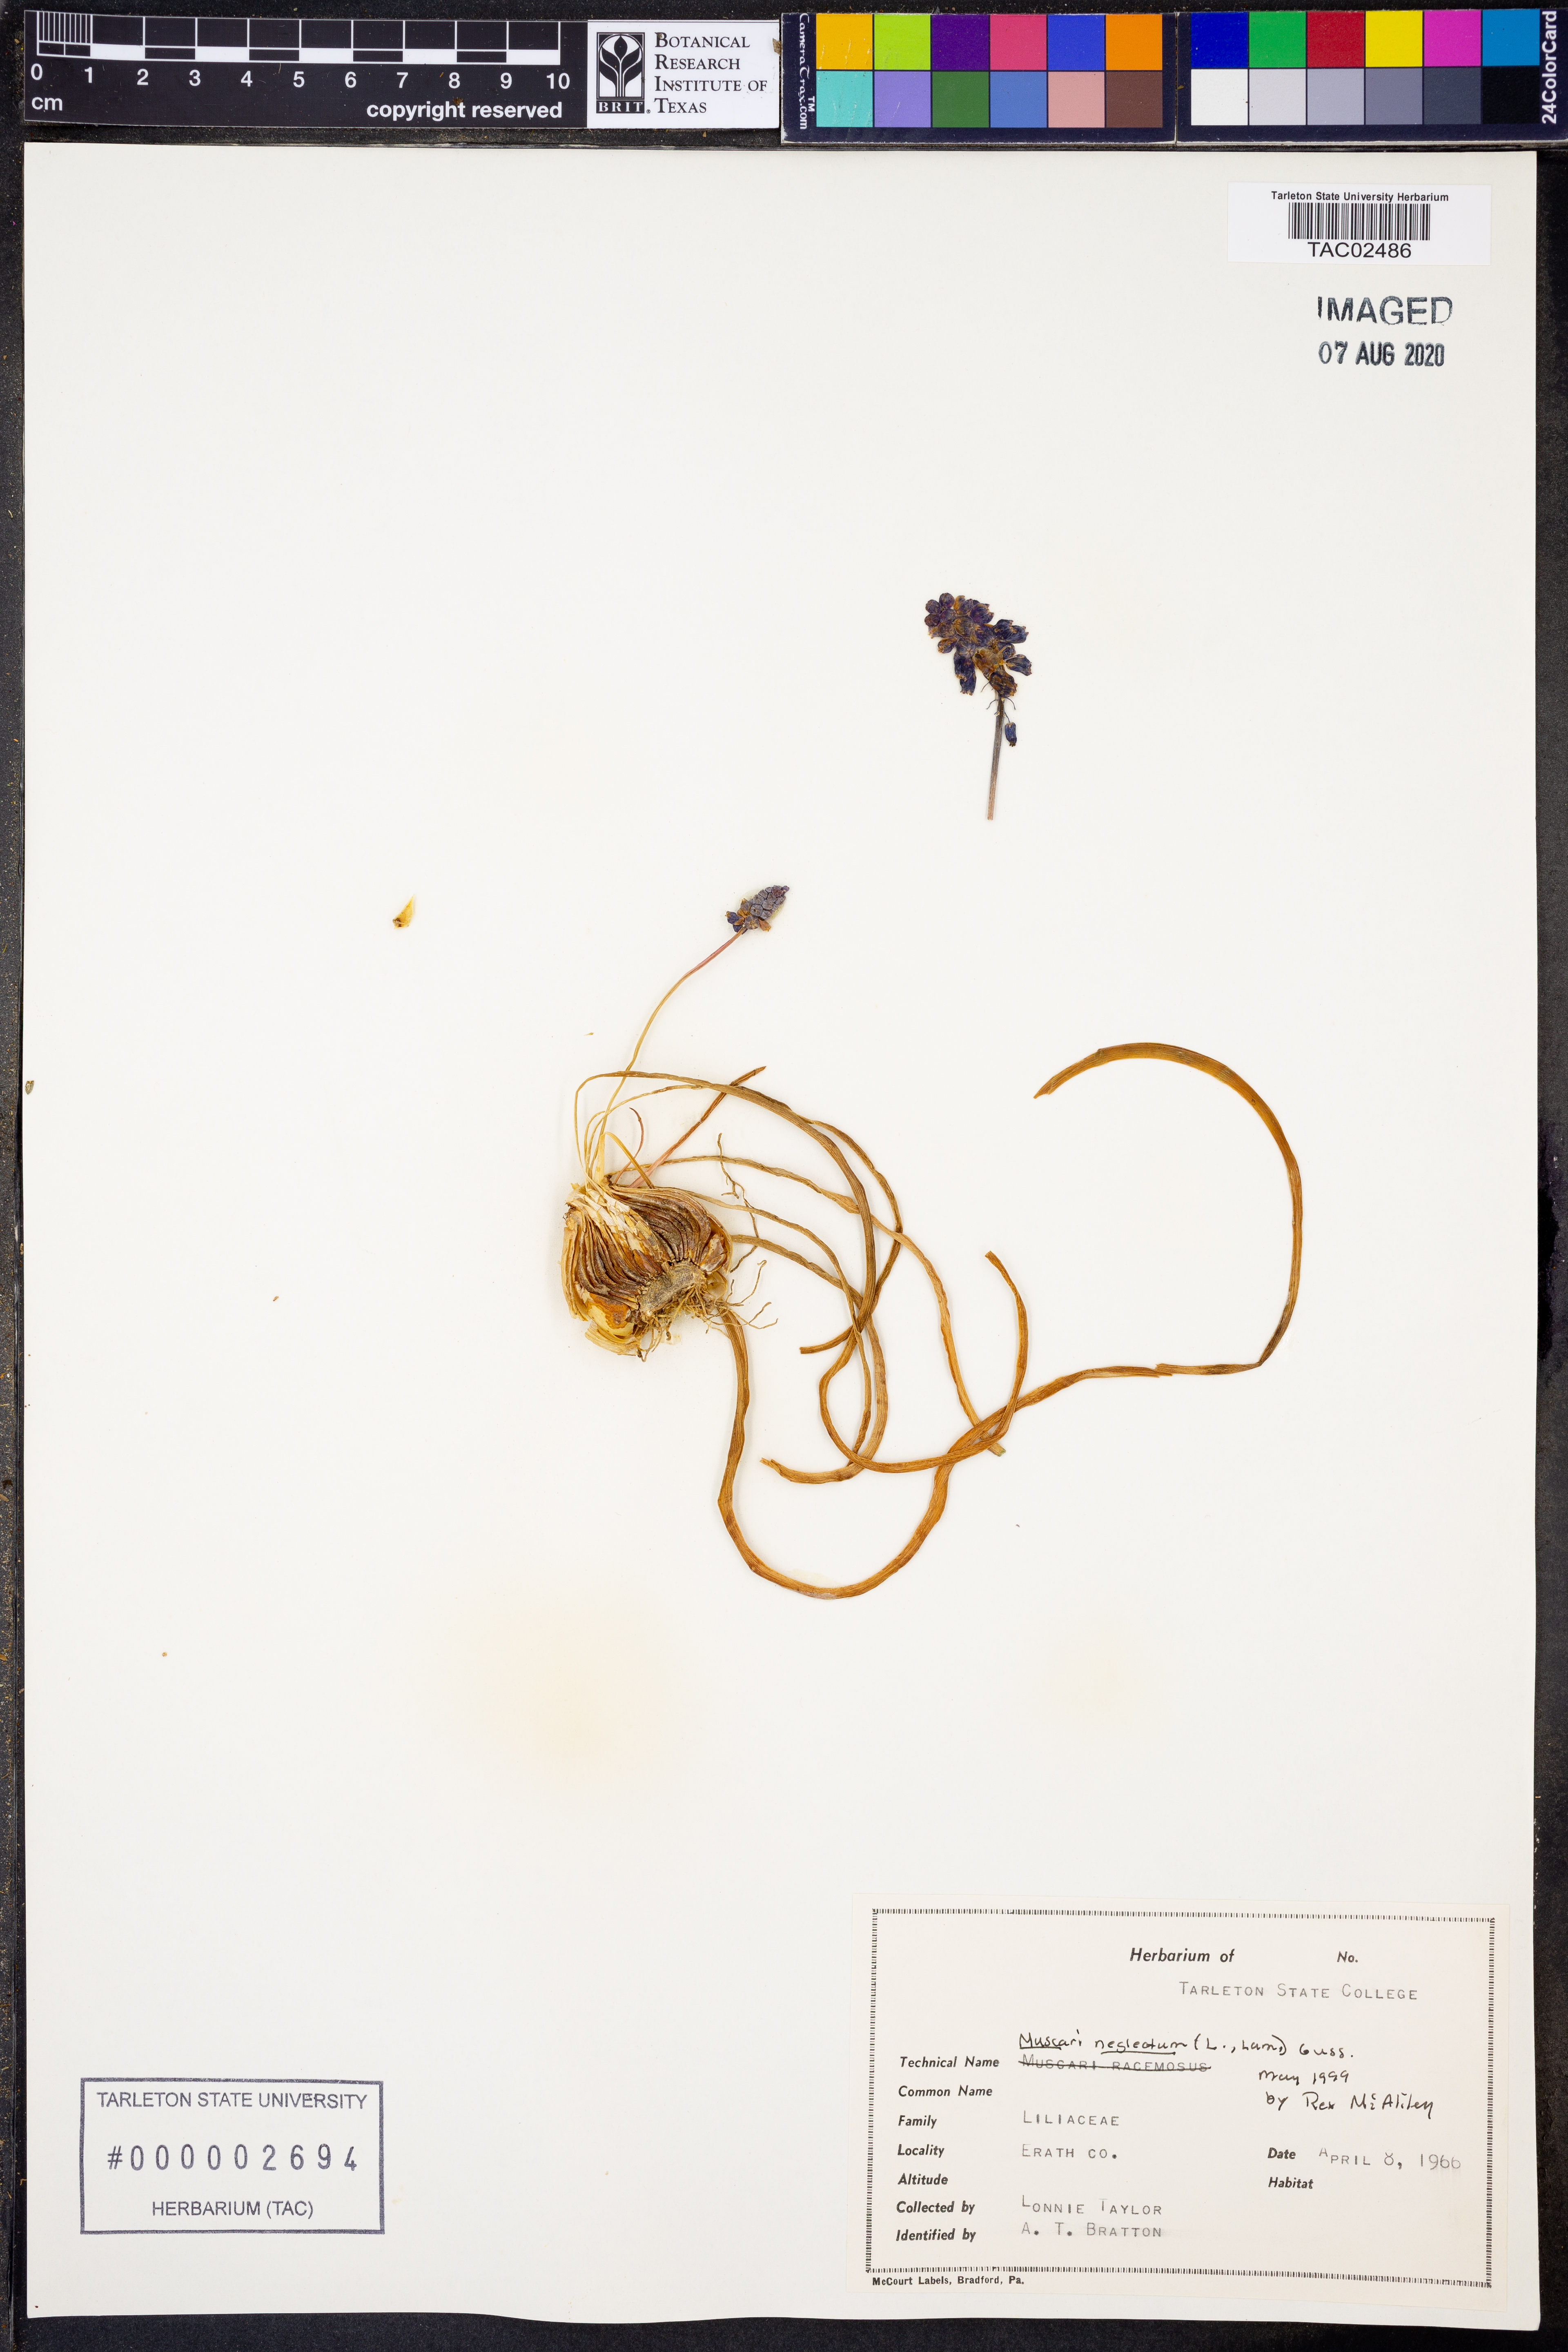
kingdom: Plantae
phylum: Tracheophyta
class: Liliopsida
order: Asparagales
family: Asparagaceae
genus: Muscarimia
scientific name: Muscarimia muscari
